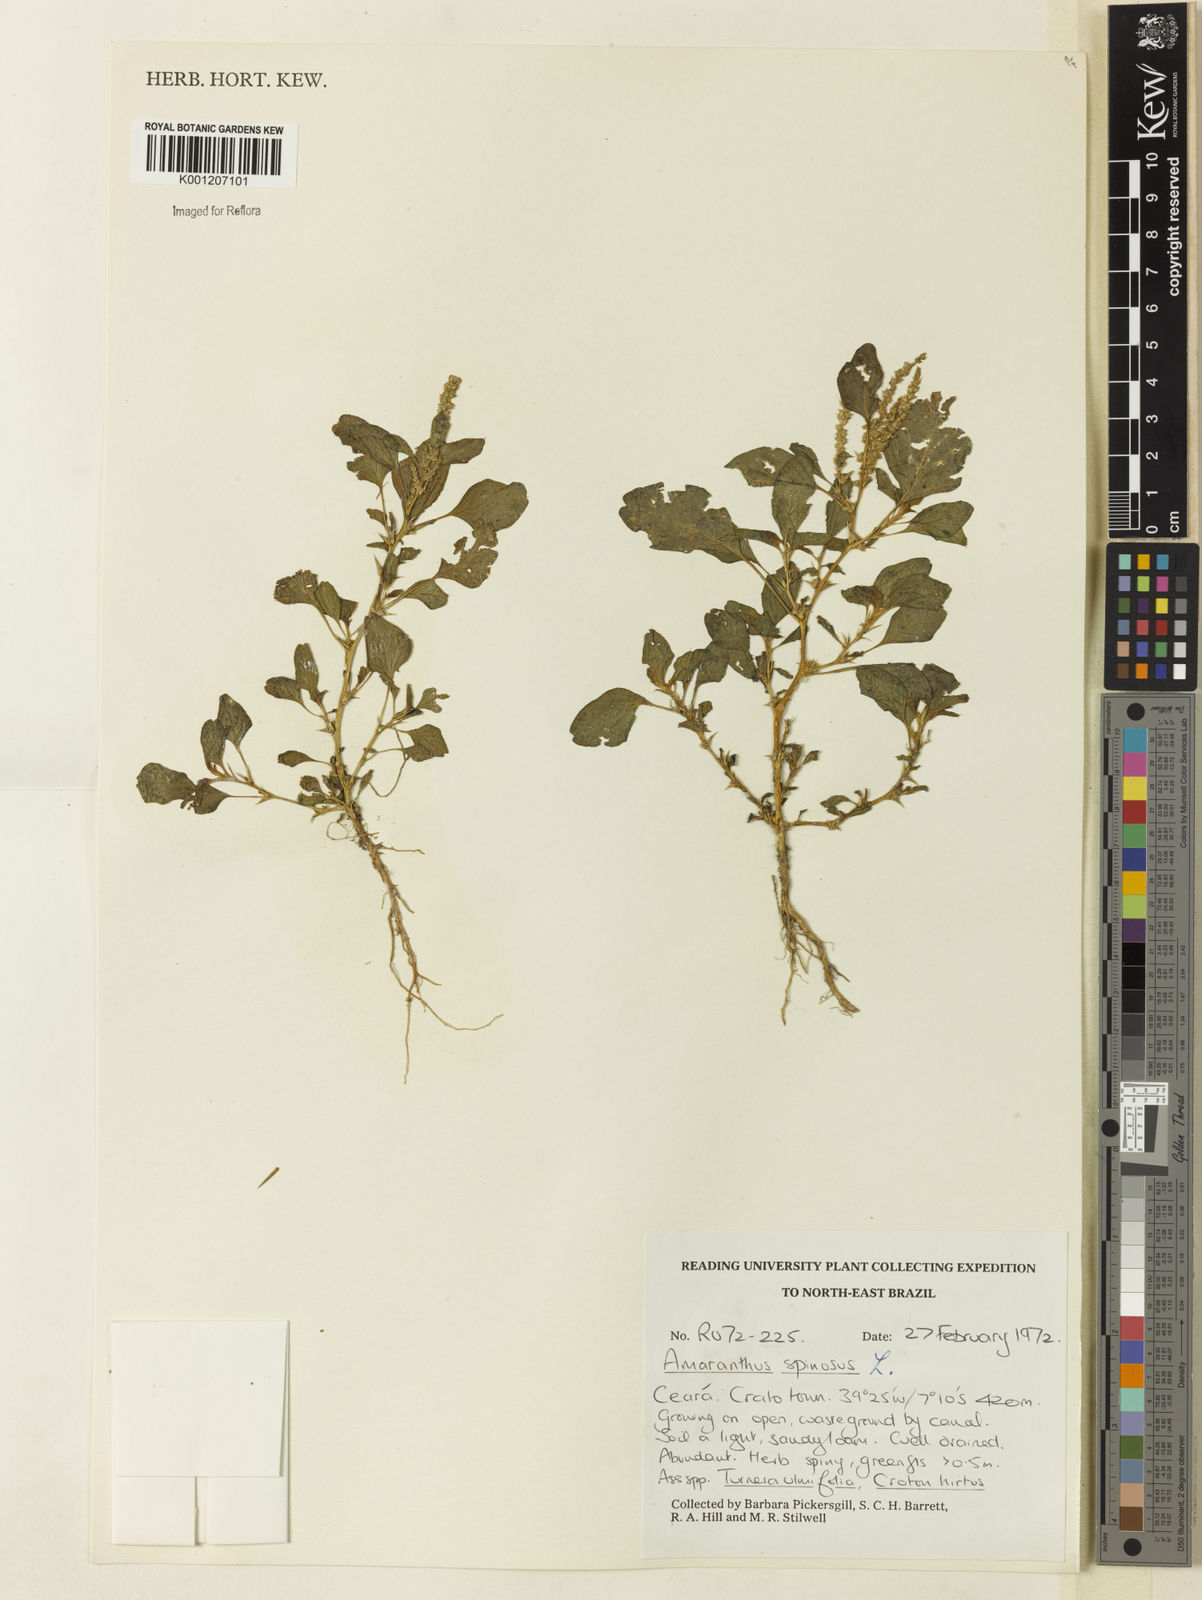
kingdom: Plantae
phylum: Tracheophyta
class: Magnoliopsida
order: Caryophyllales
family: Amaranthaceae
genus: Amaranthus
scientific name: Amaranthus spinosus
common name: Spiny amaranth
